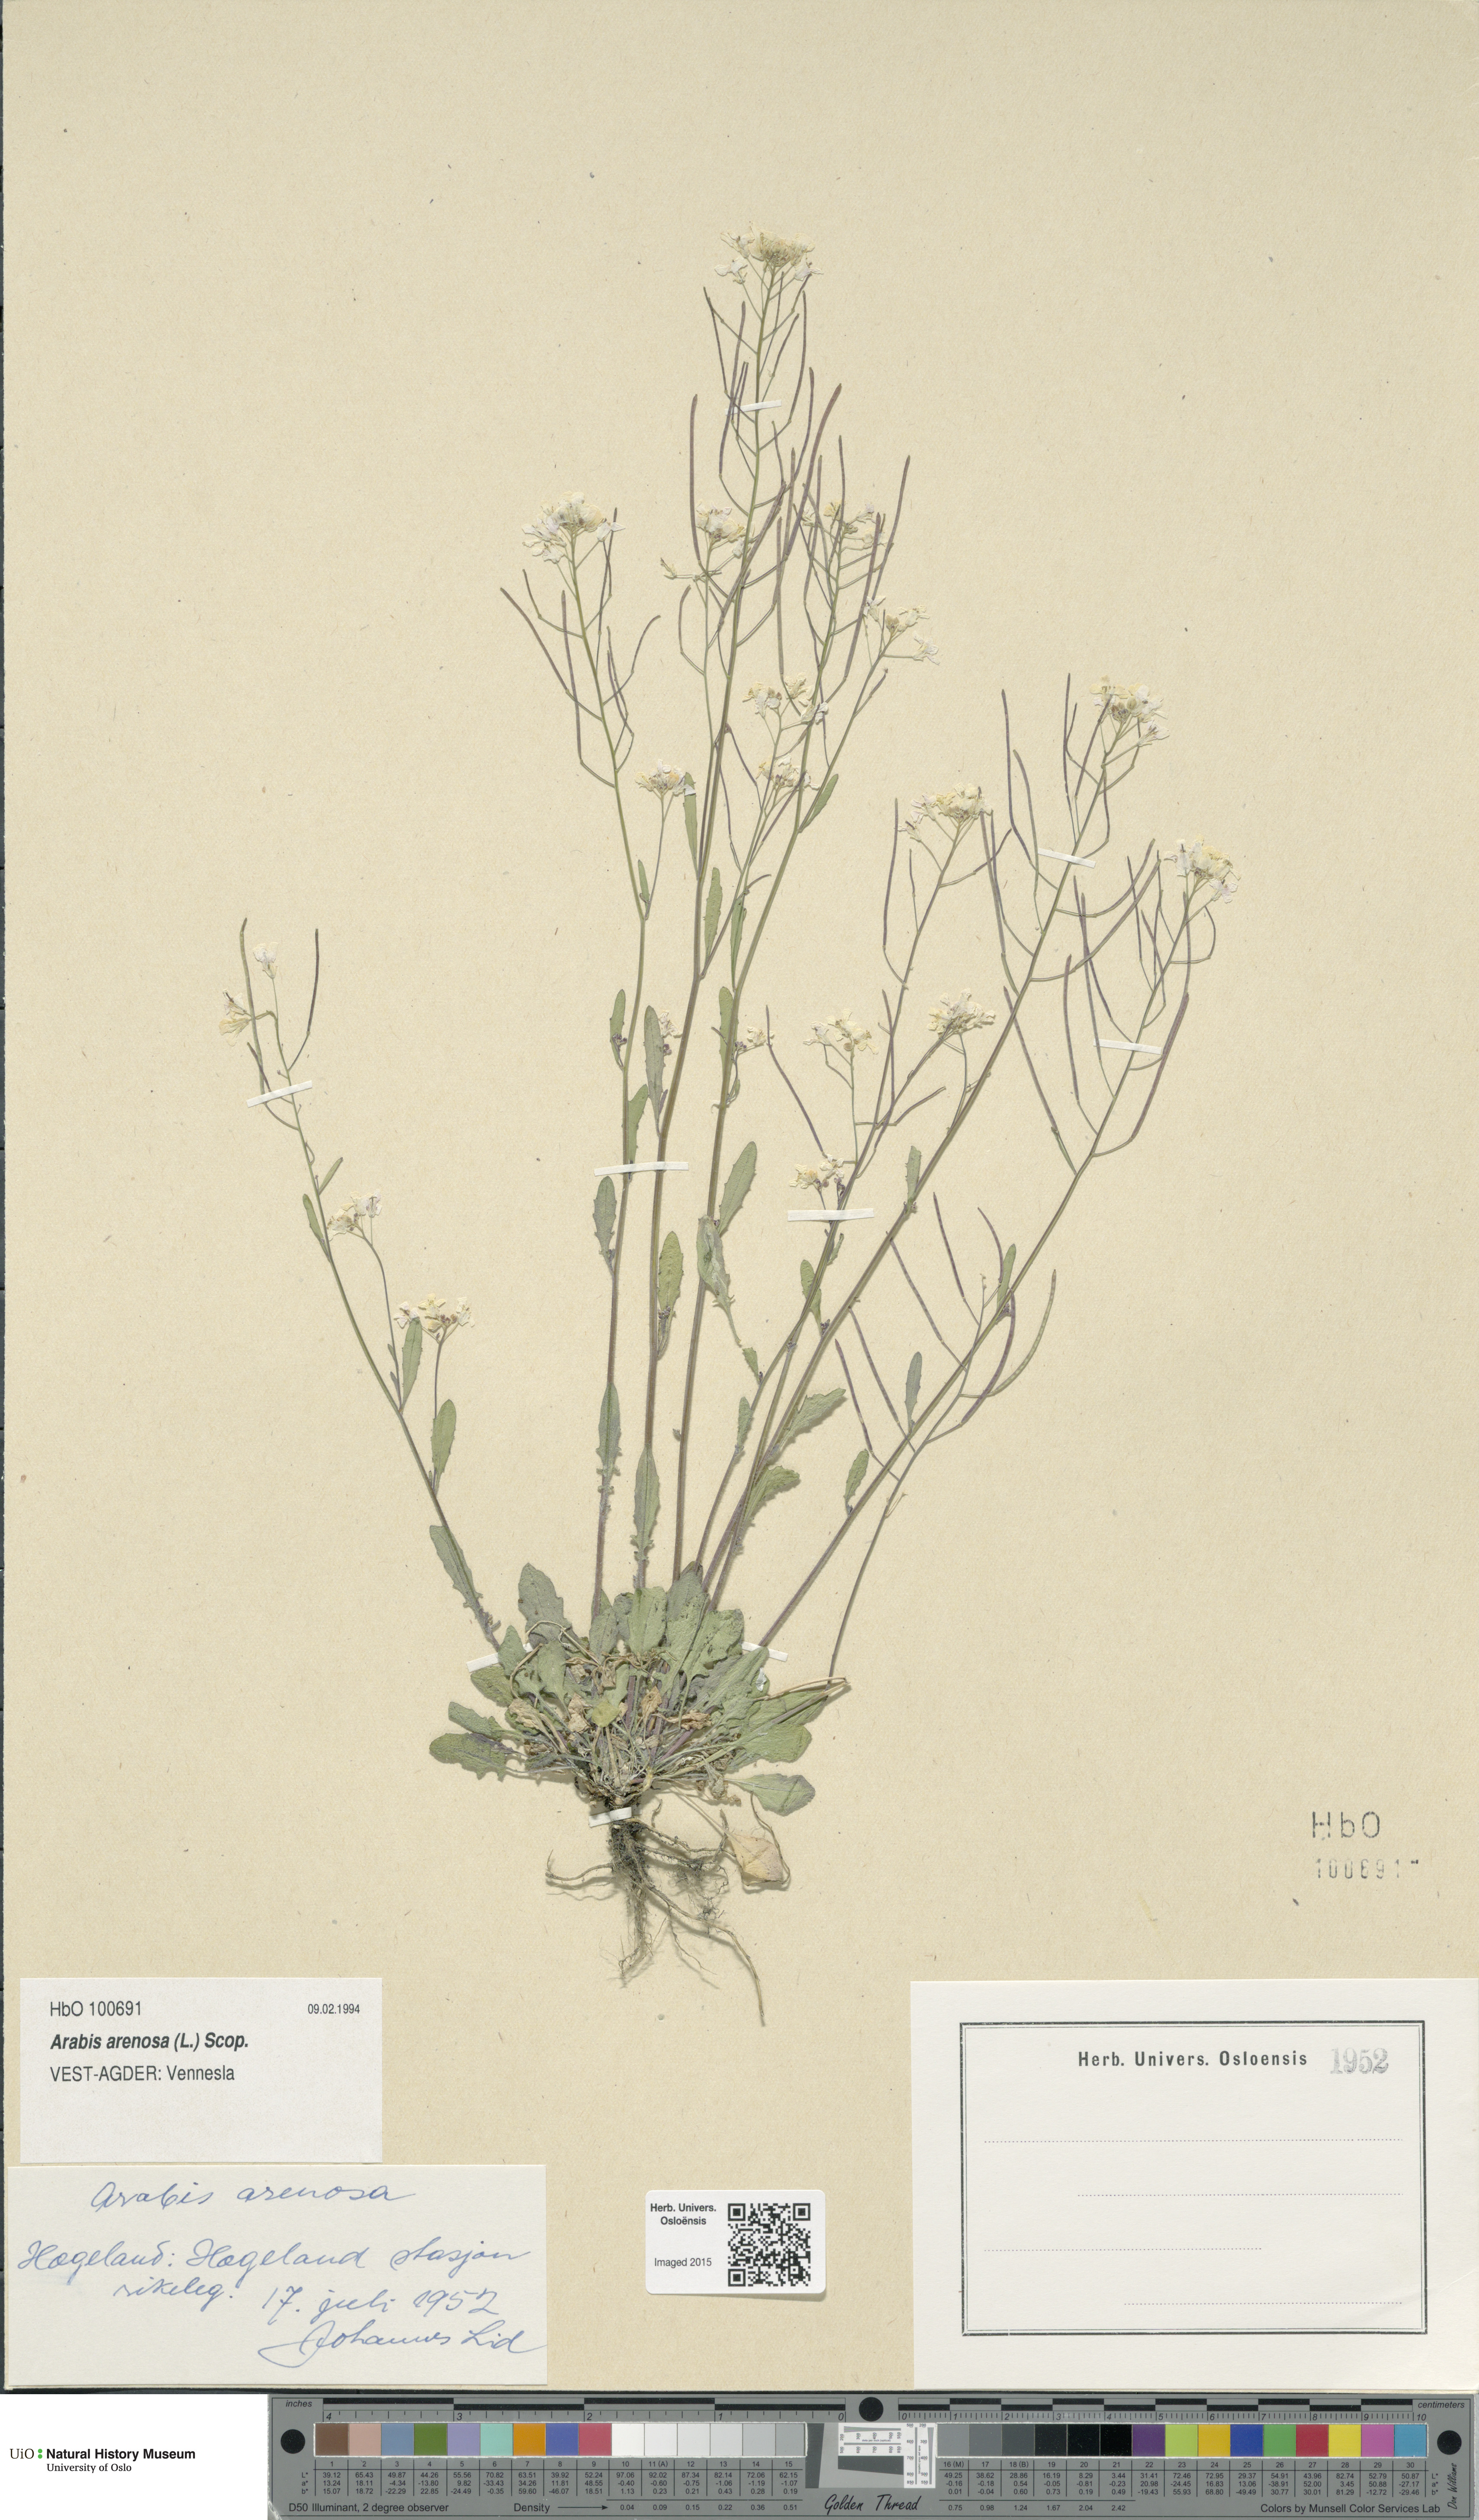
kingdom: Plantae
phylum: Tracheophyta
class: Magnoliopsida
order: Brassicales
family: Brassicaceae
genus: Arabidopsis
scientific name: Arabidopsis arenosa
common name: Sand rock-cress
